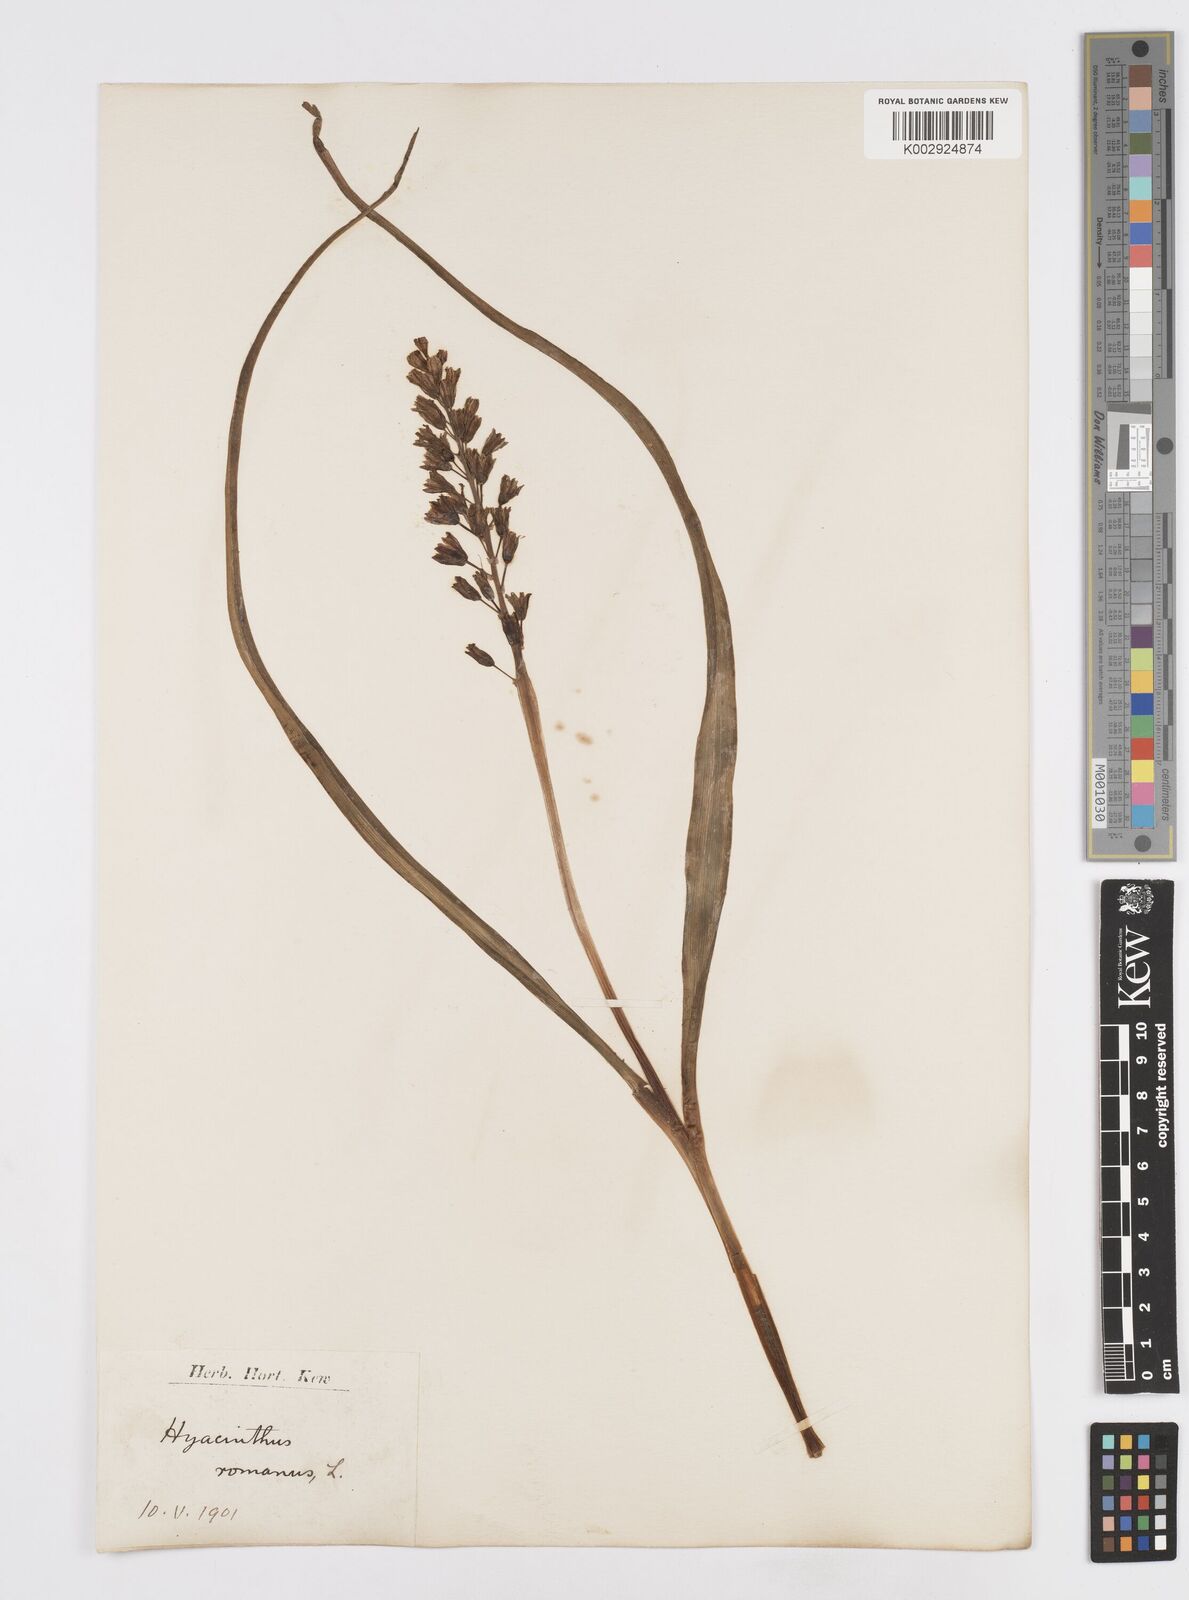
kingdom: Plantae
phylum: Tracheophyta
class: Liliopsida
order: Asparagales
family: Asparagaceae
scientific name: Asparagaceae
